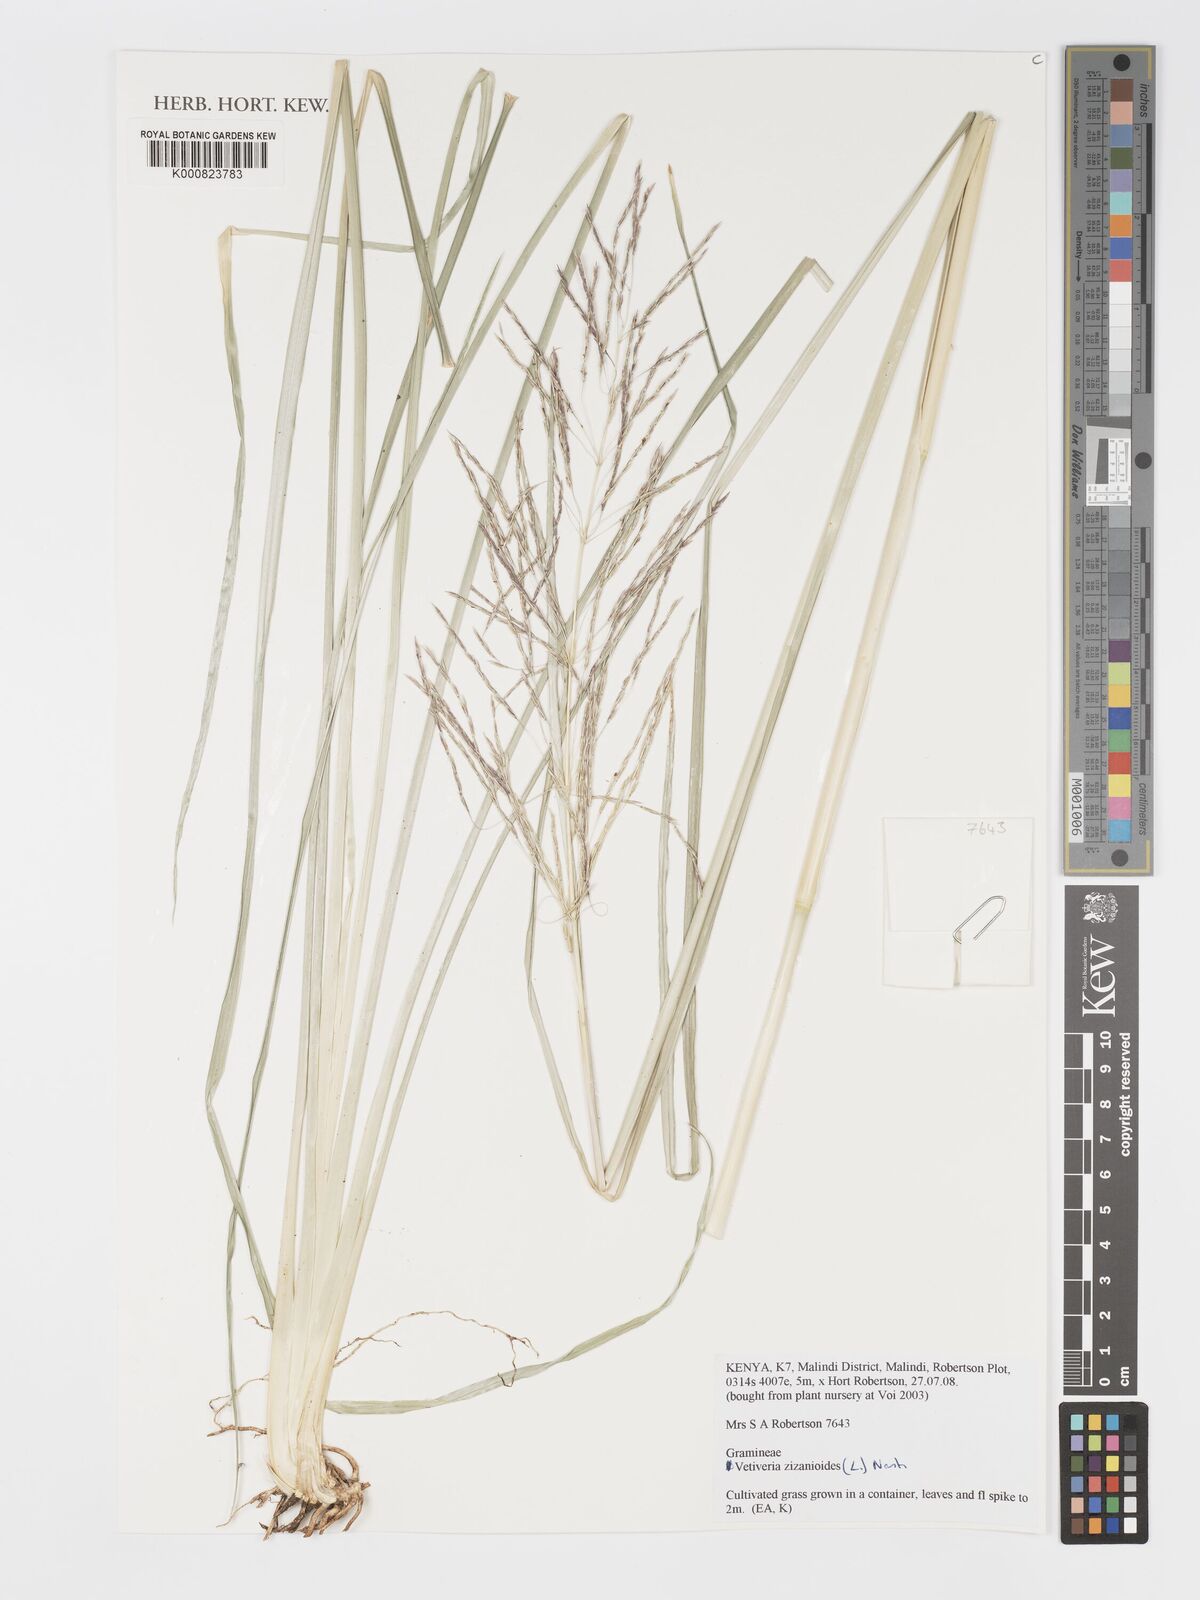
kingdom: Plantae
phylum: Tracheophyta
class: Liliopsida
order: Poales
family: Poaceae
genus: Chrysopogon
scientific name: Chrysopogon zizanioides
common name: False beardgrass
